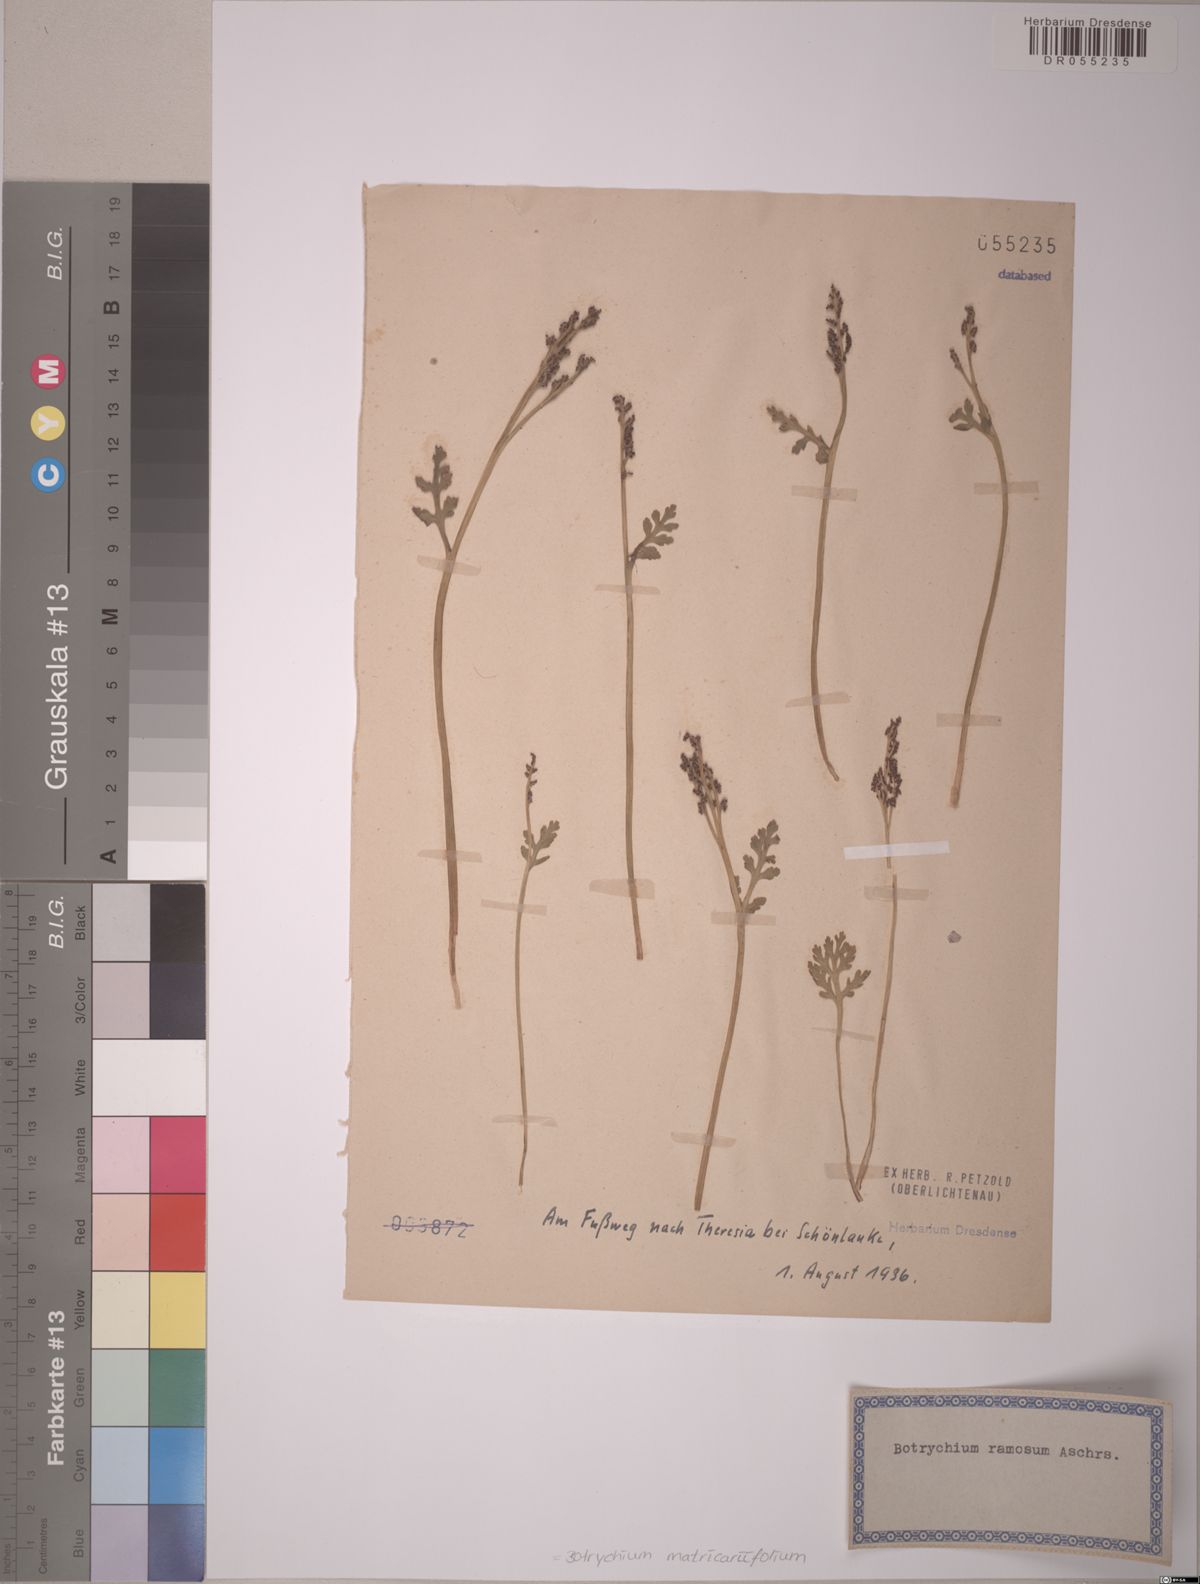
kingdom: Plantae
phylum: Tracheophyta
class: Polypodiopsida
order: Ophioglossales
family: Ophioglossaceae
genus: Botrychium
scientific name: Botrychium matricariifolium
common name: Branched moonwort
